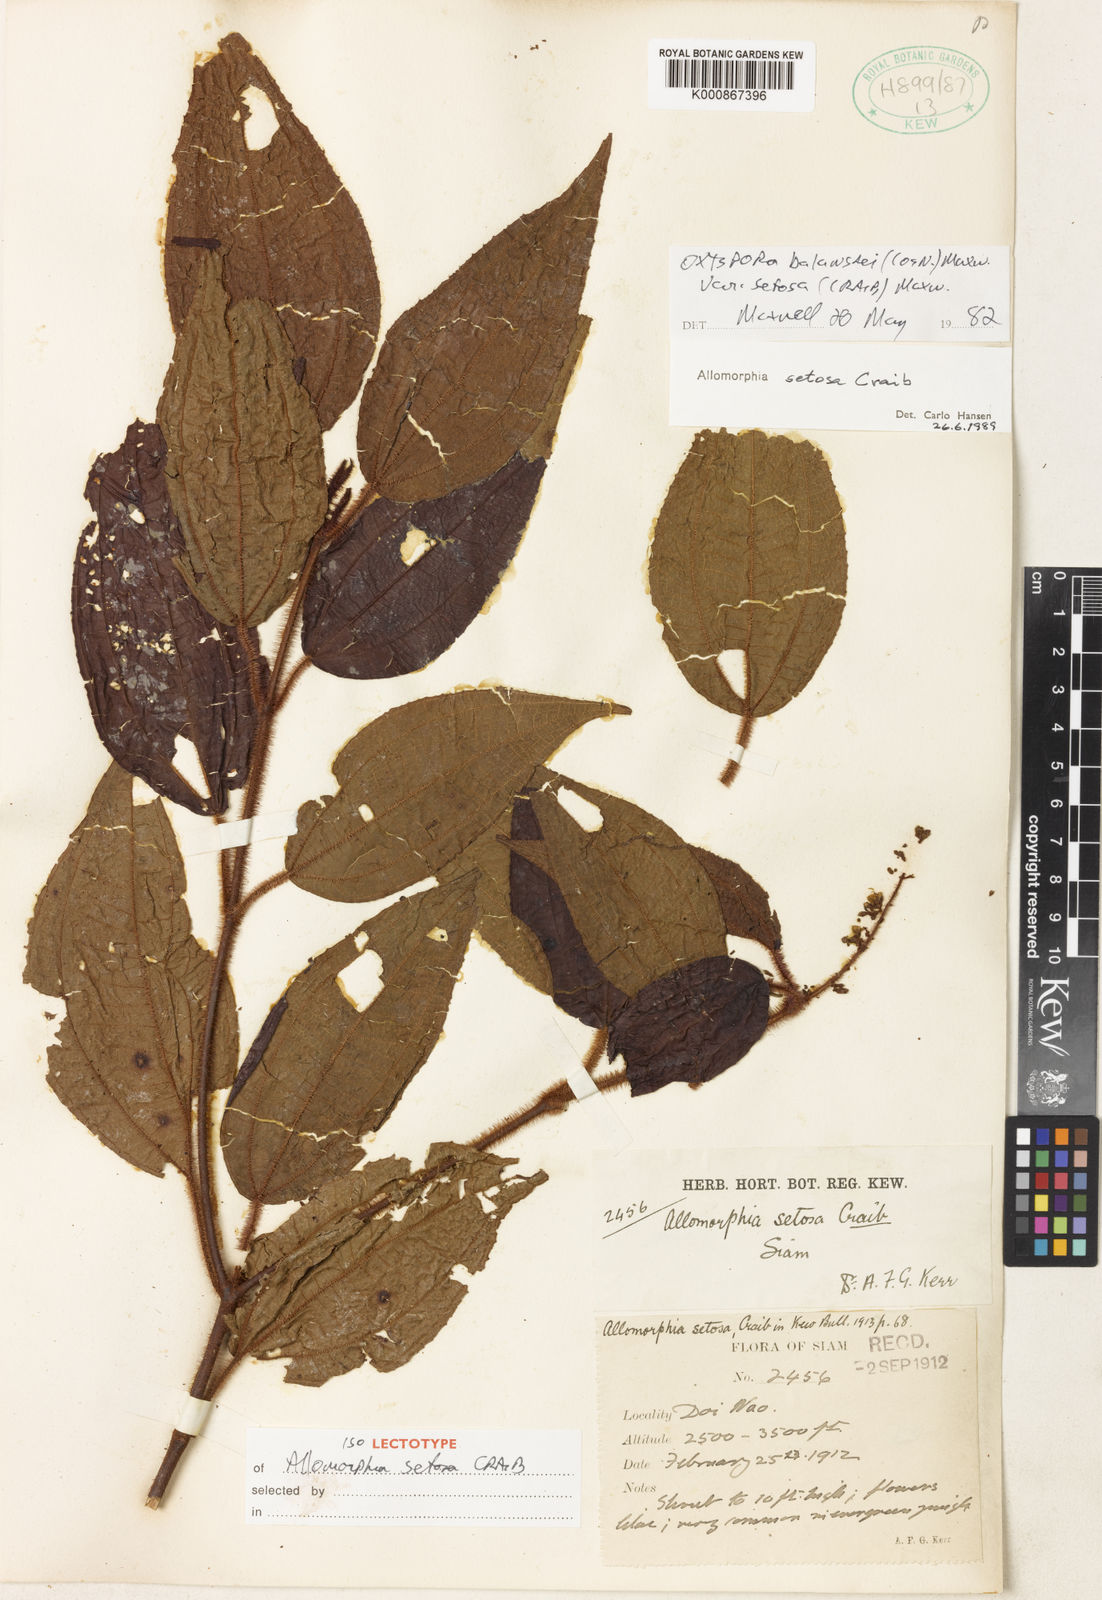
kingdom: Plantae
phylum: Tracheophyta
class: Magnoliopsida
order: Myrtales
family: Melastomataceae
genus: Allomorphia
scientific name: Allomorphia howellii
